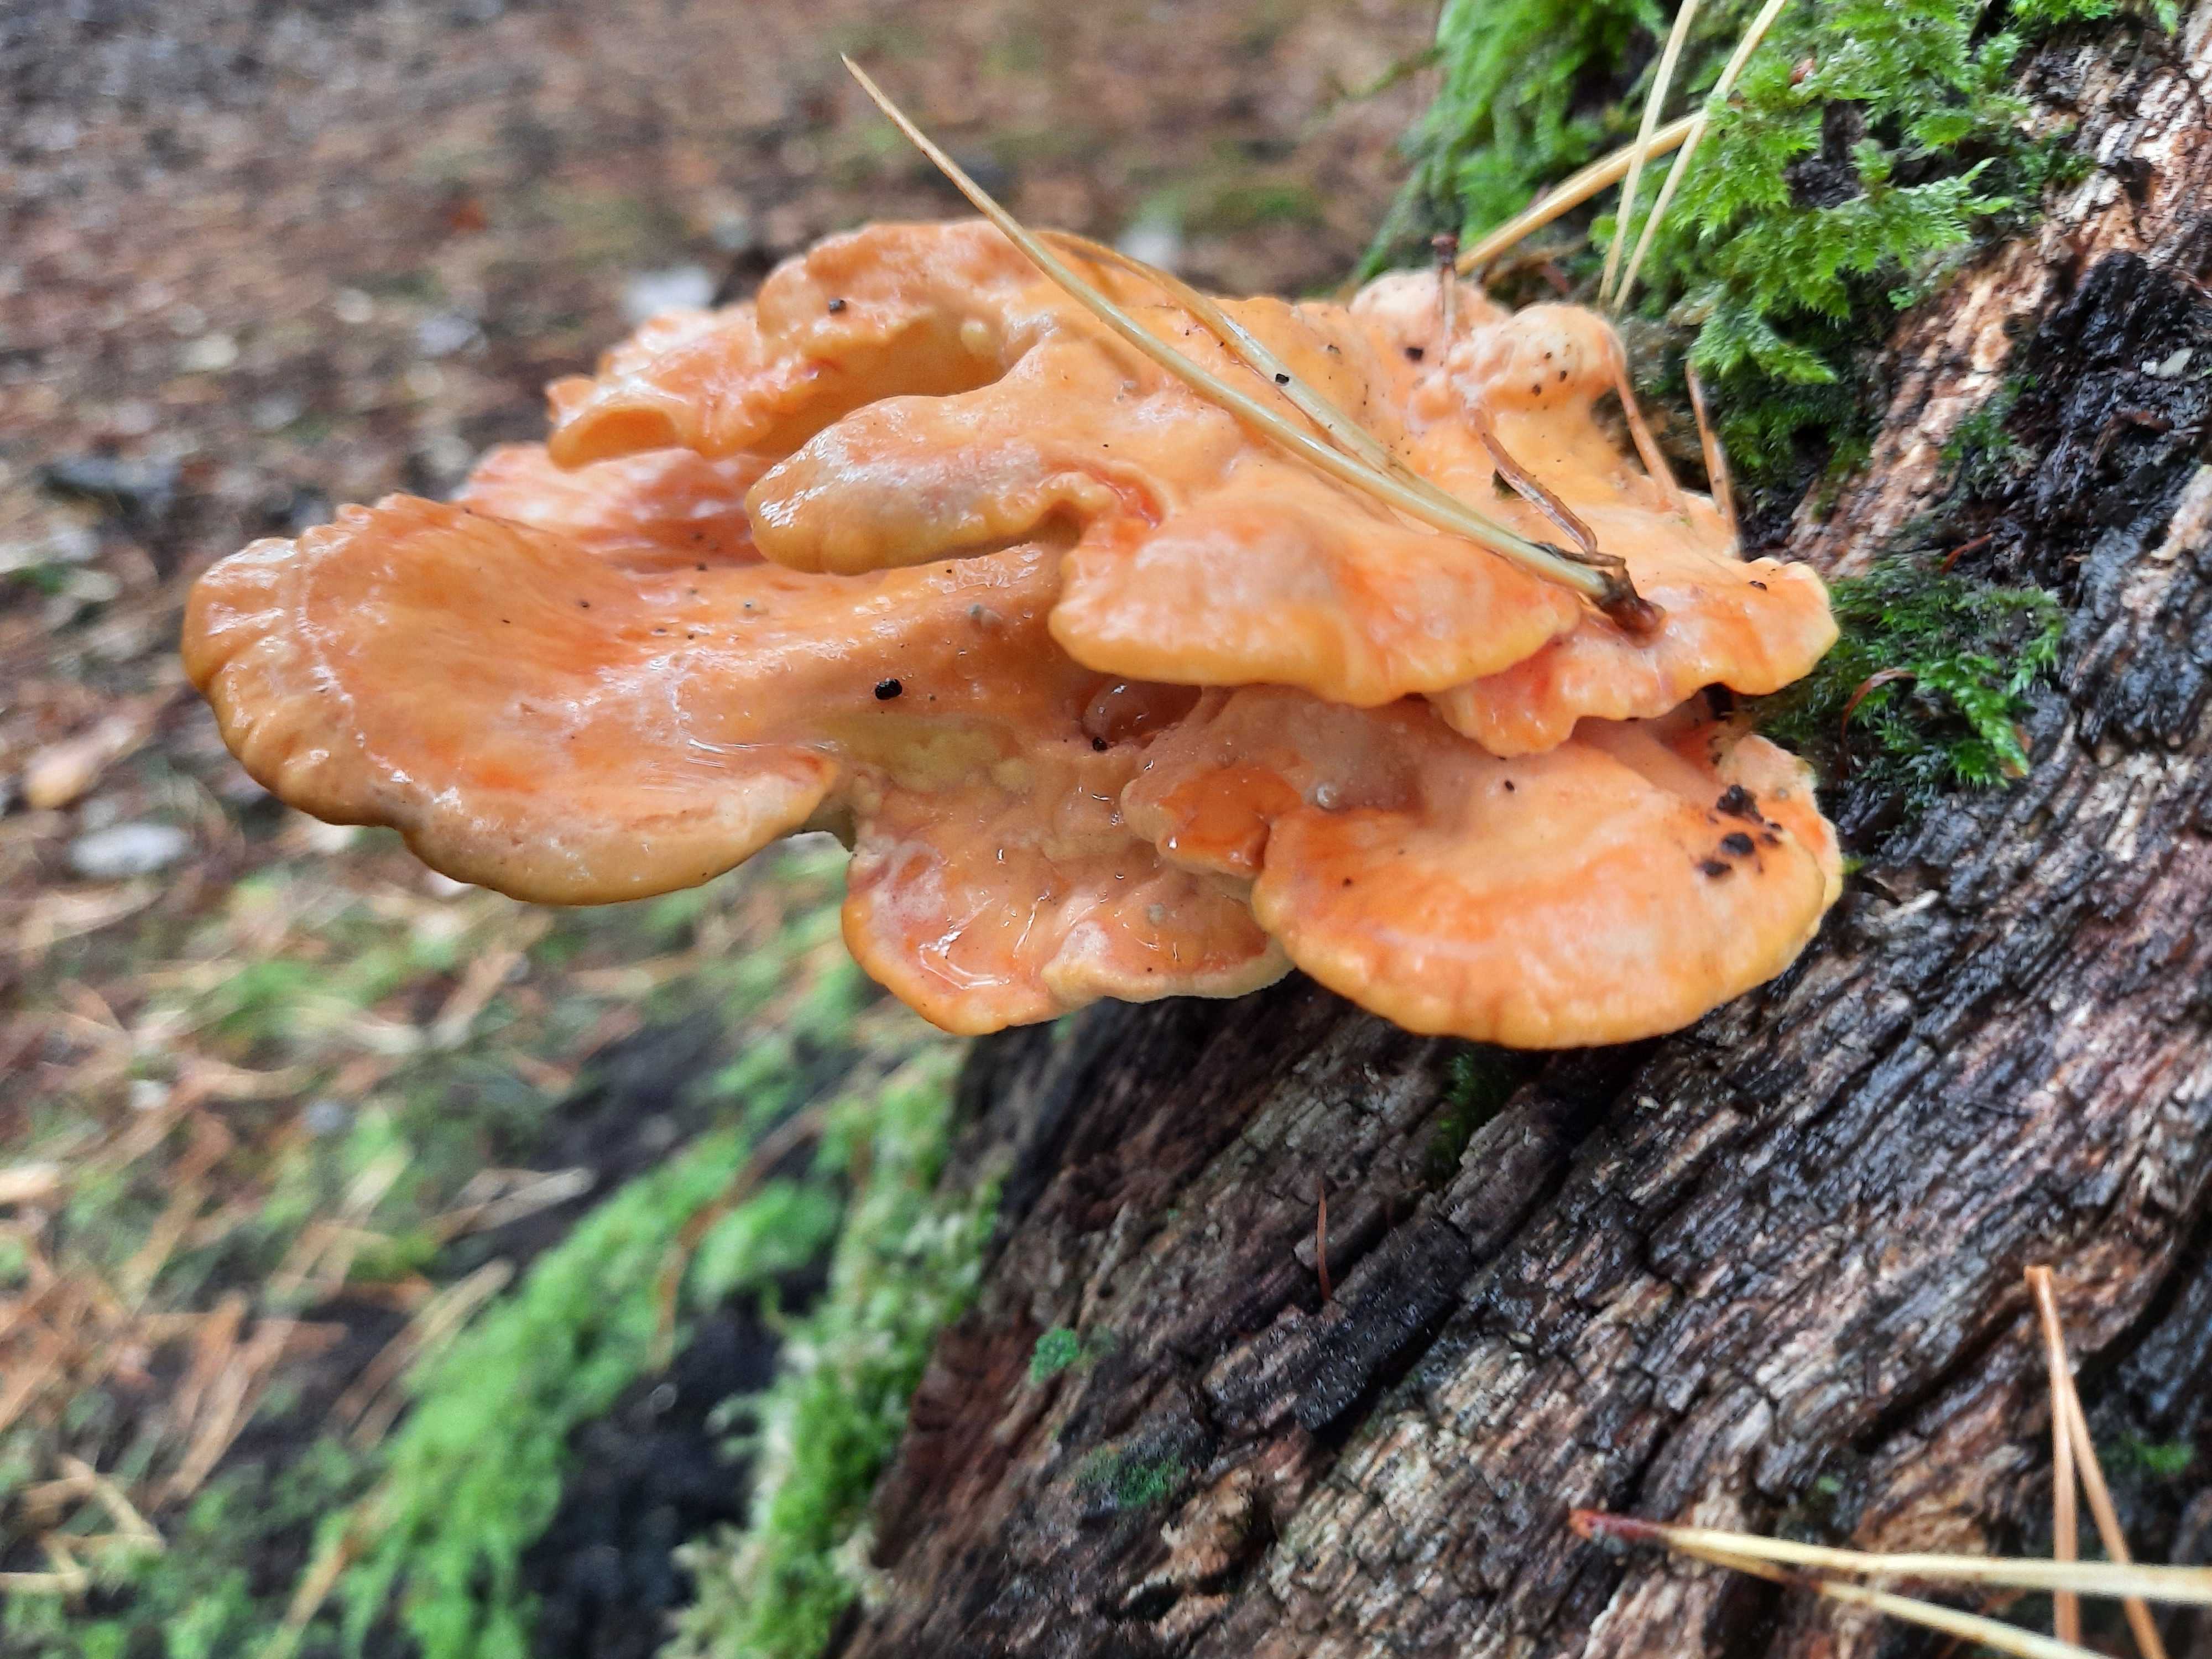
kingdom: Fungi
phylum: Basidiomycota
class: Agaricomycetes
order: Polyporales
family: Laetiporaceae
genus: Laetiporus
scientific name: Laetiporus sulphureus
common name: svovlporesvamp
